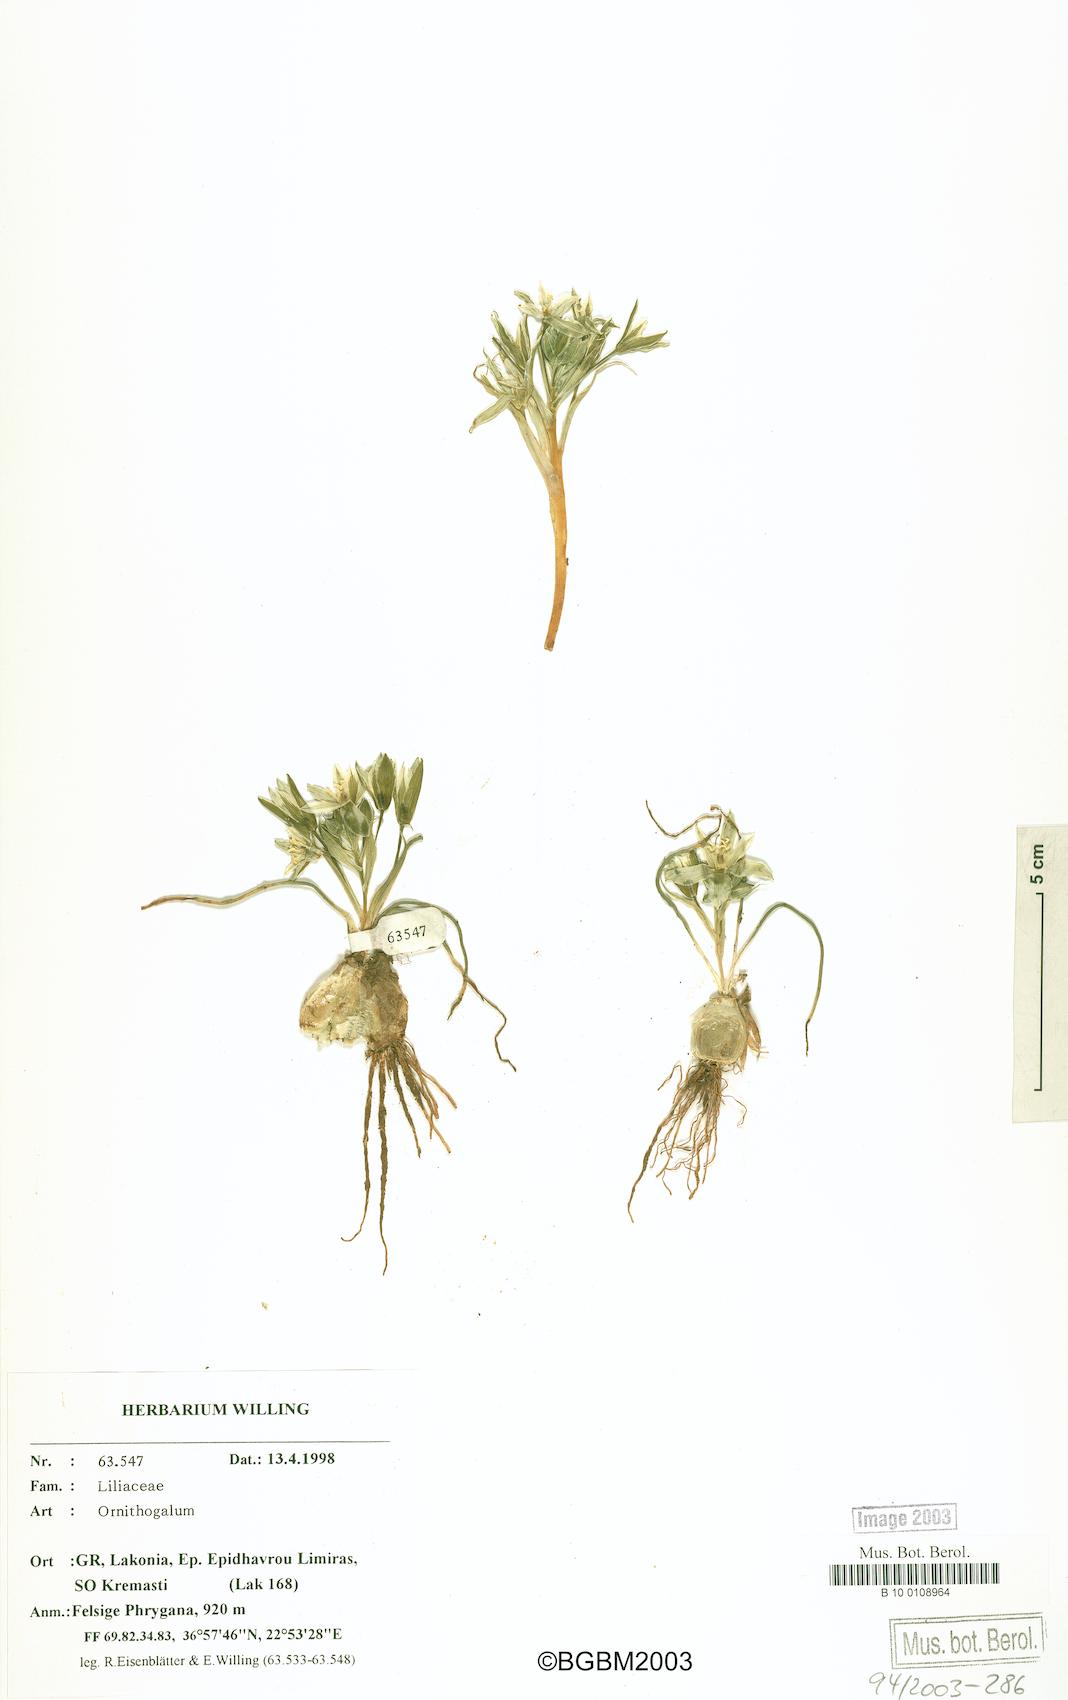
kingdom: Plantae
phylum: Tracheophyta
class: Liliopsida
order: Asparagales
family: Asparagaceae
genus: Ornithogalum
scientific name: Ornithogalum
